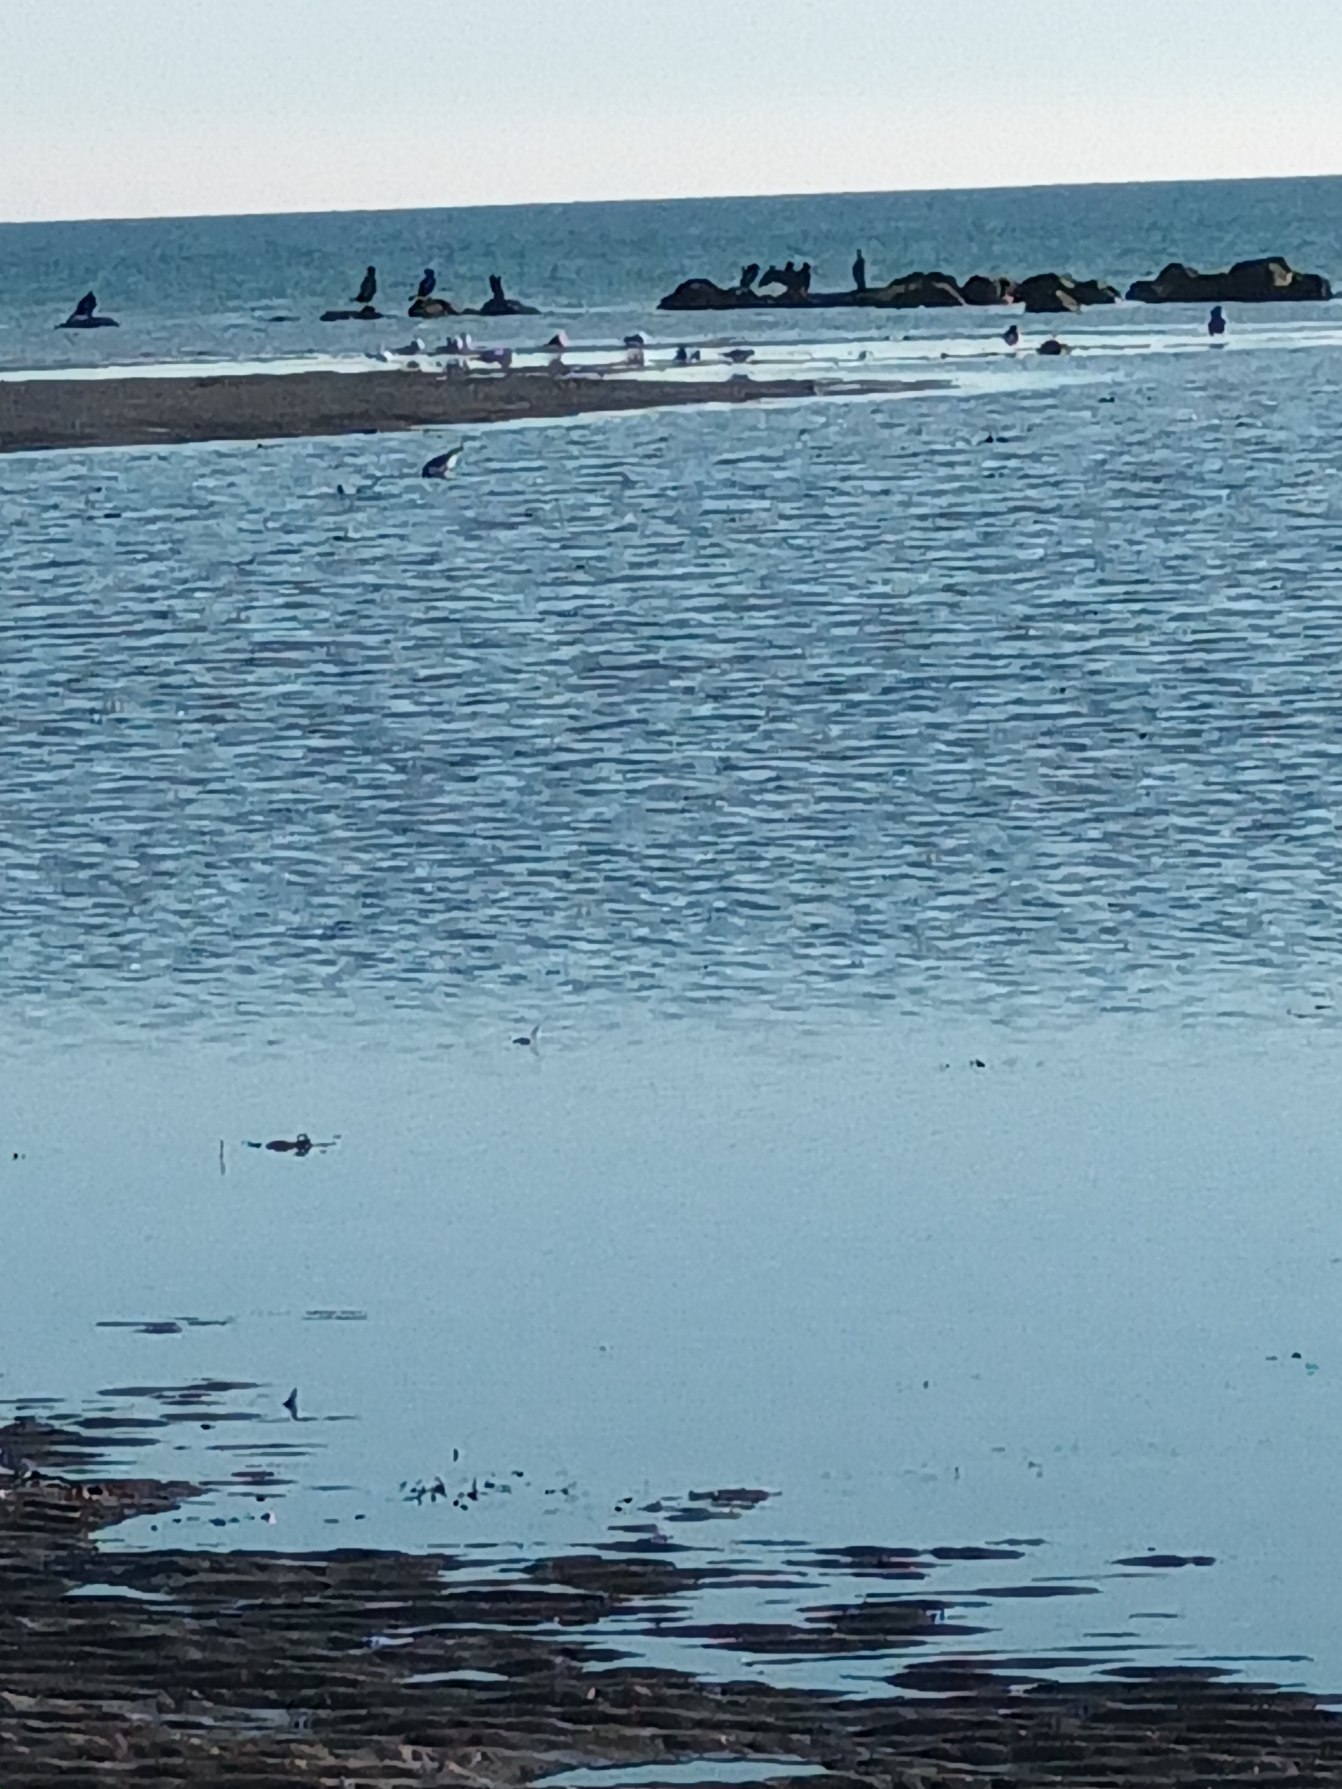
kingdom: Animalia
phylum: Chordata
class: Aves
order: Charadriiformes
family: Haematopodidae
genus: Haematopus
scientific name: Haematopus ostralegus
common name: Strandskade
